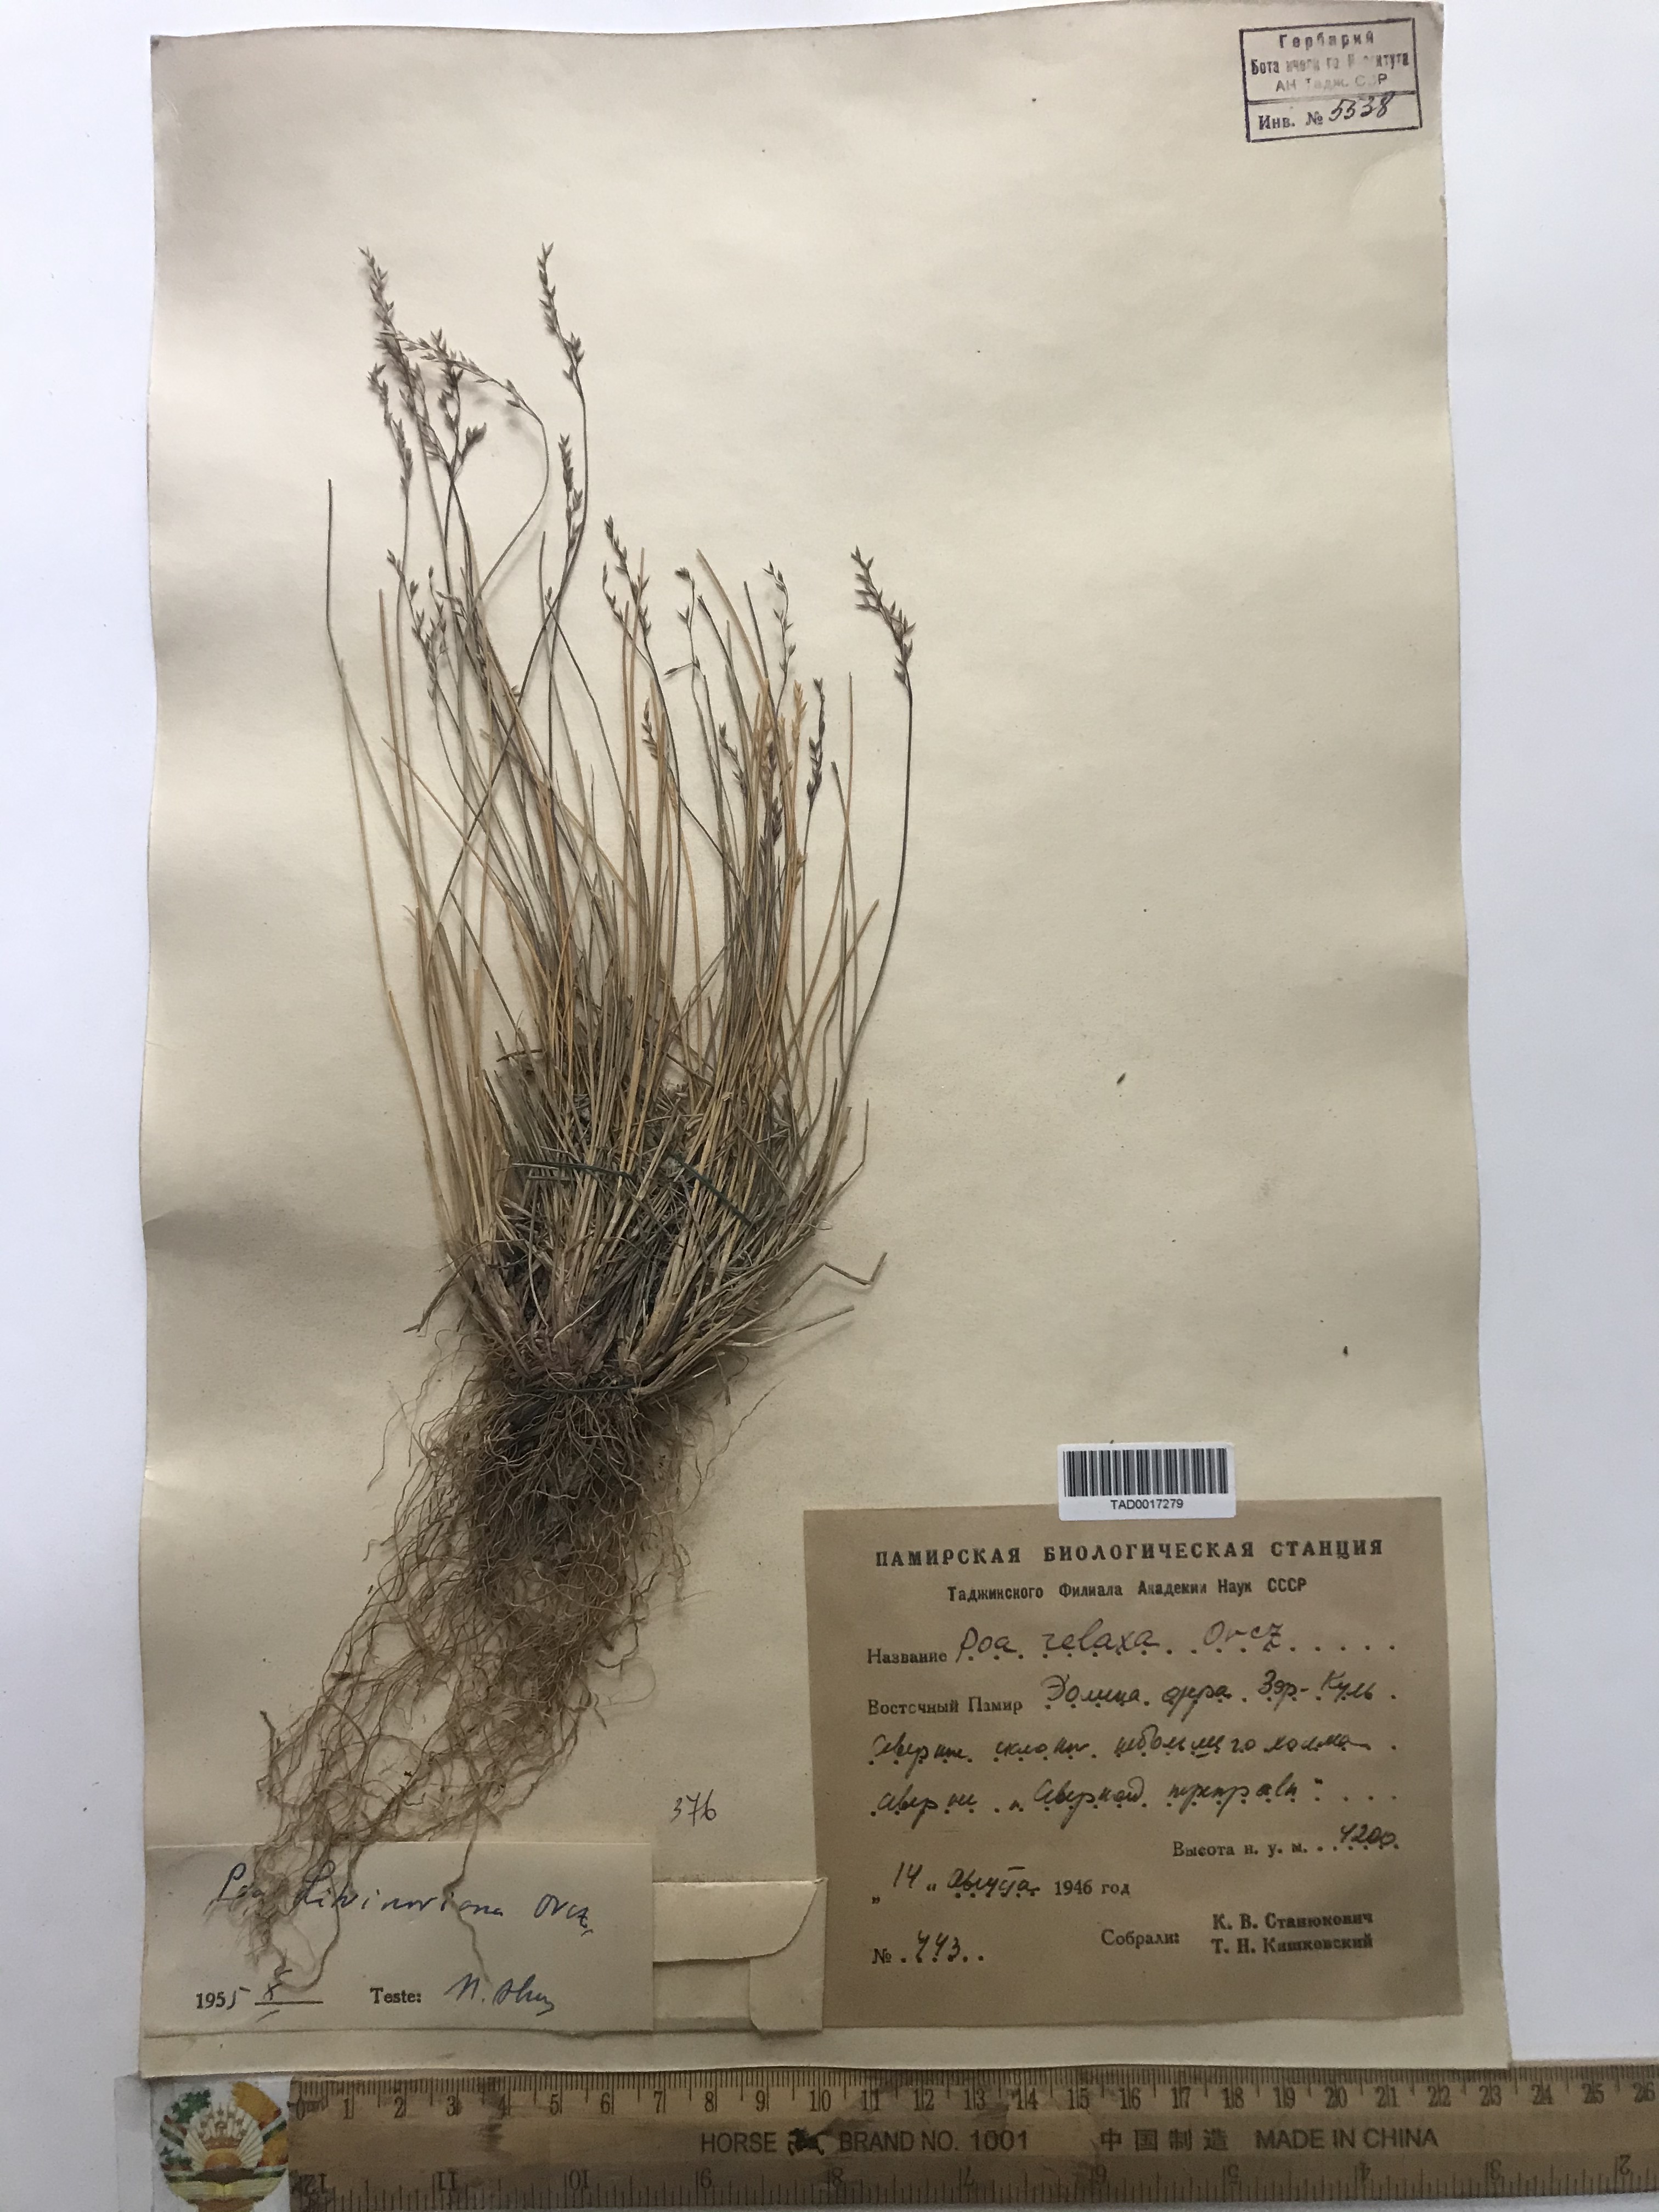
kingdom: Plantae
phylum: Tracheophyta
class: Liliopsida
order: Poales
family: Poaceae
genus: Poa
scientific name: Poa versicolor
